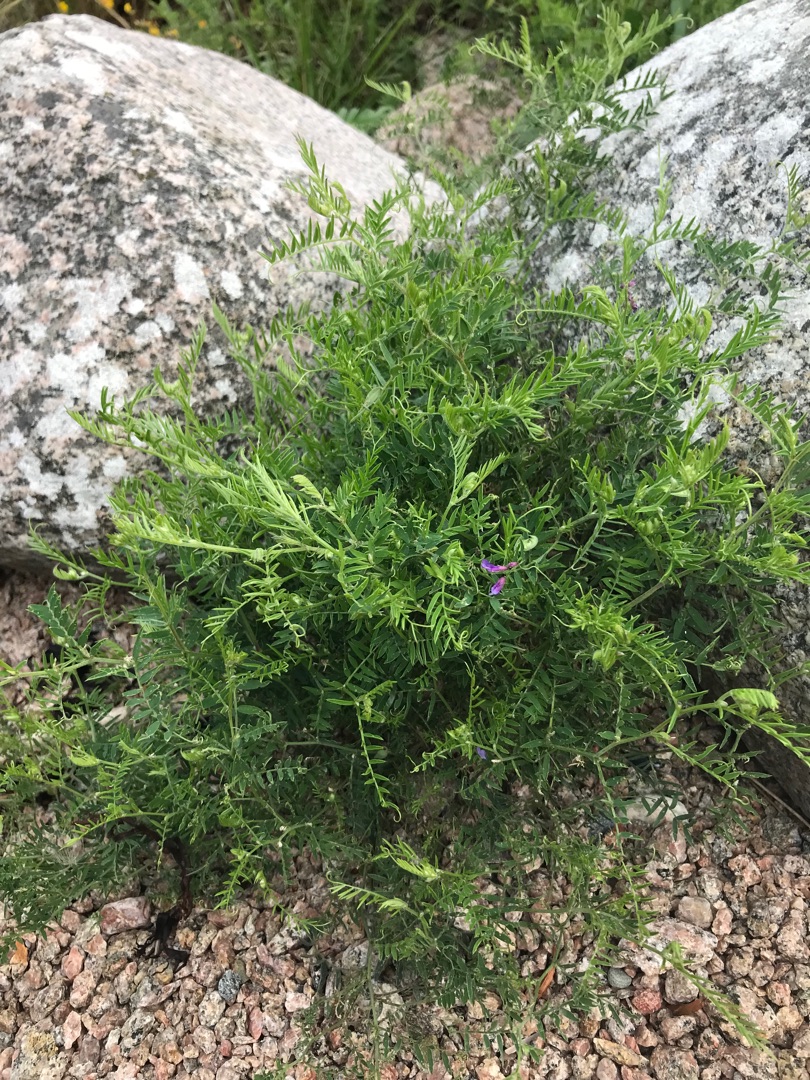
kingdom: Plantae
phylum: Tracheophyta
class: Magnoliopsida
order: Fabales
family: Fabaceae
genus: Vicia
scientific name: Vicia cracca
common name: Muse-vikke
